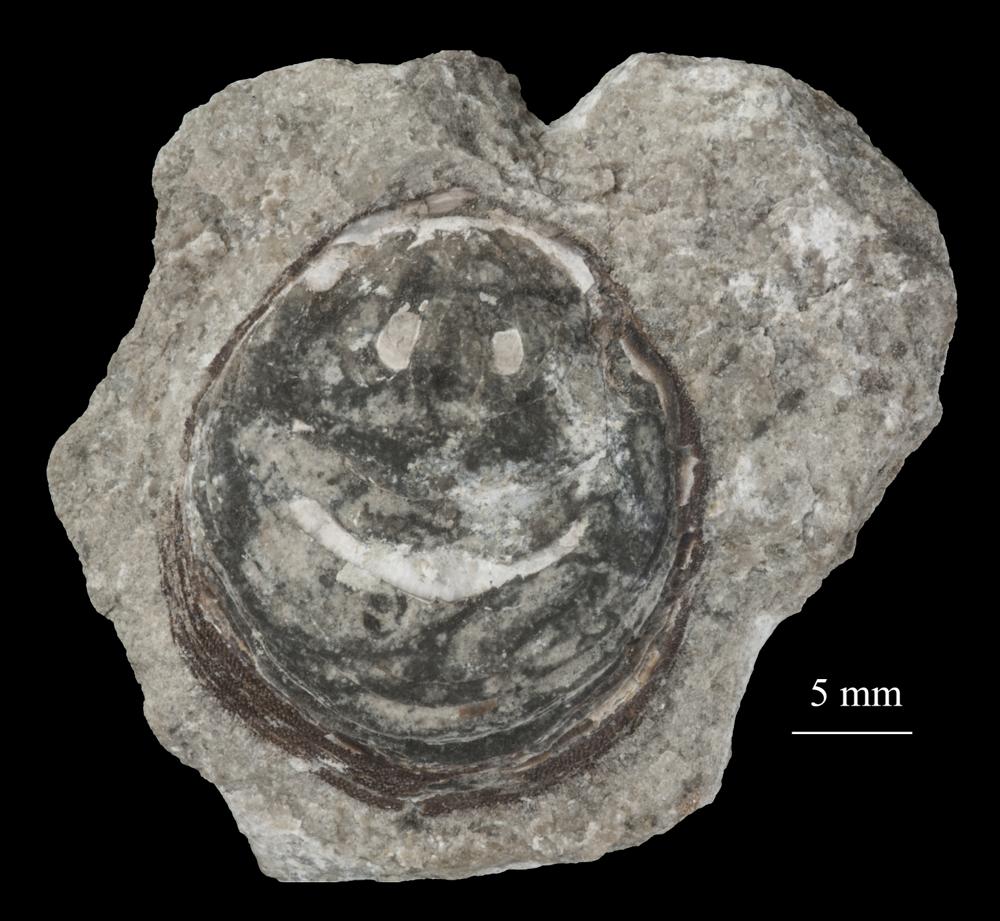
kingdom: Animalia
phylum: Brachiopoda
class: Lingulata
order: Siphonotretida
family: Siphonotretidae
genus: Siphonotreta
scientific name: Siphonotreta
